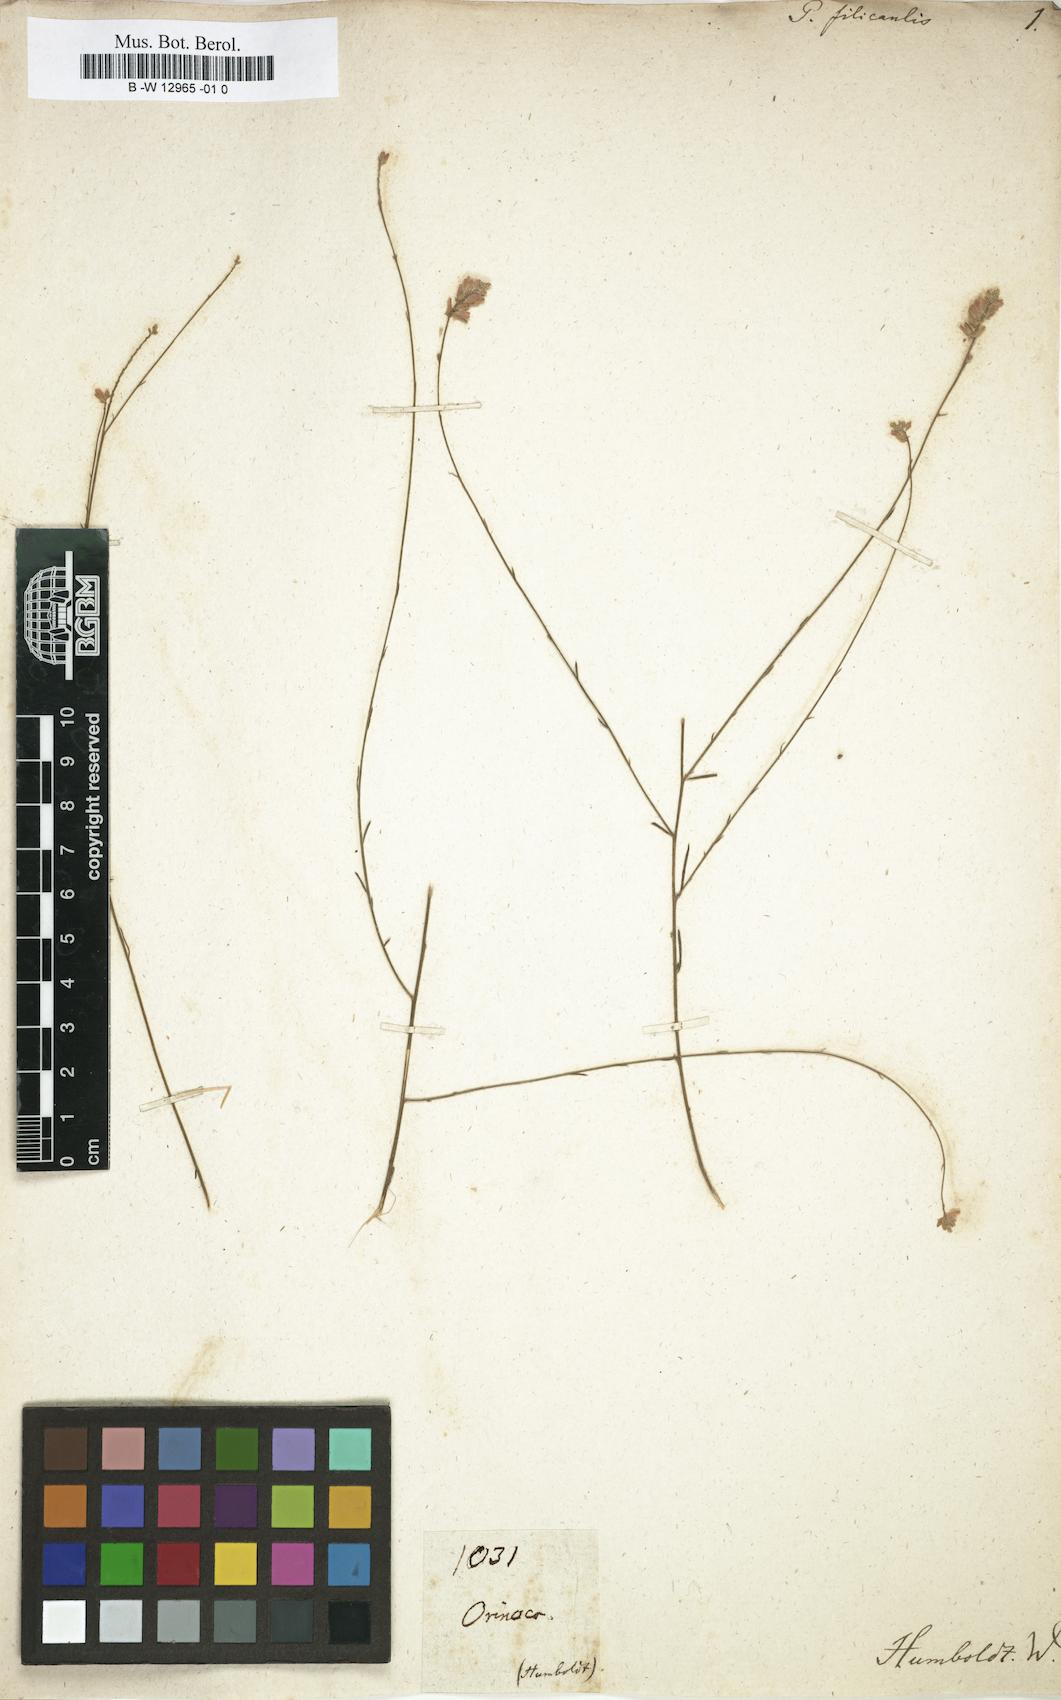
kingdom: Plantae
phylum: Tracheophyta
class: Magnoliopsida
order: Fabales
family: Polygalaceae
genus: Polygala
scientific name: Polygala capillaris
